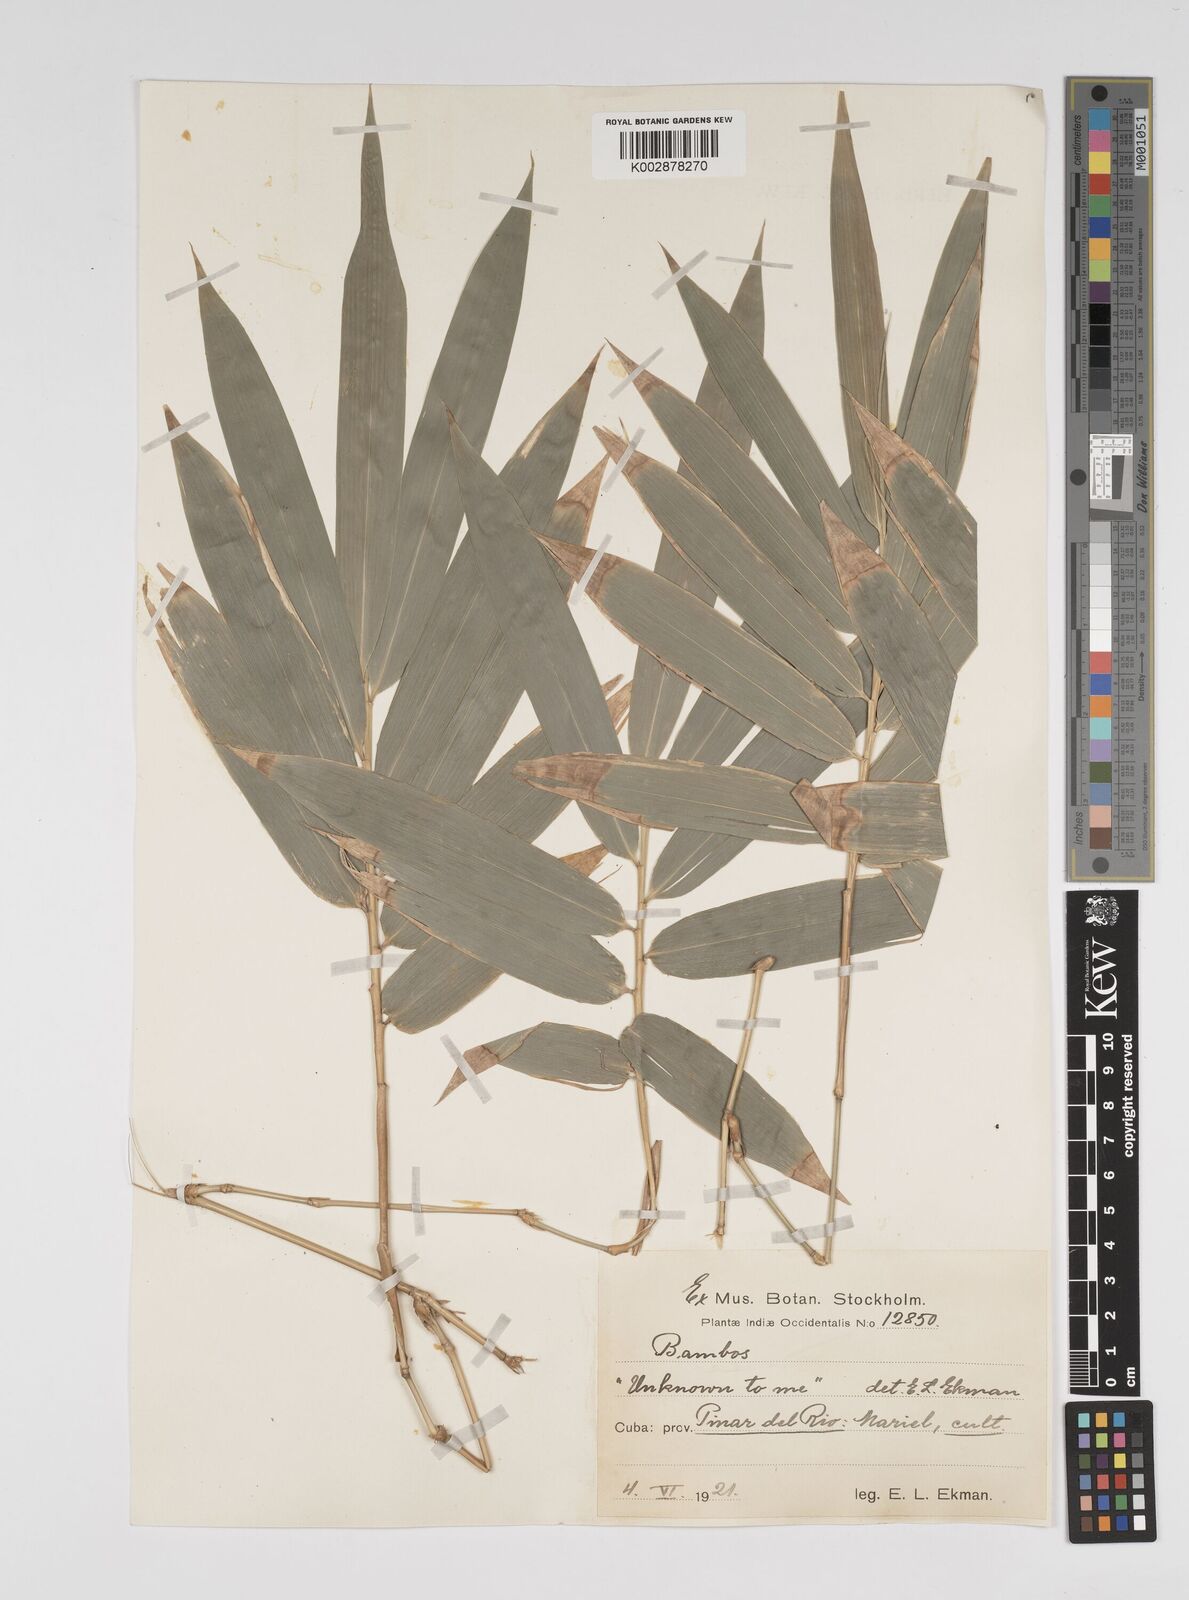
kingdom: Plantae
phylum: Tracheophyta
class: Liliopsida
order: Poales
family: Poaceae
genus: Bambusa
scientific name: Bambusa vulgaris
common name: Common bamboo
